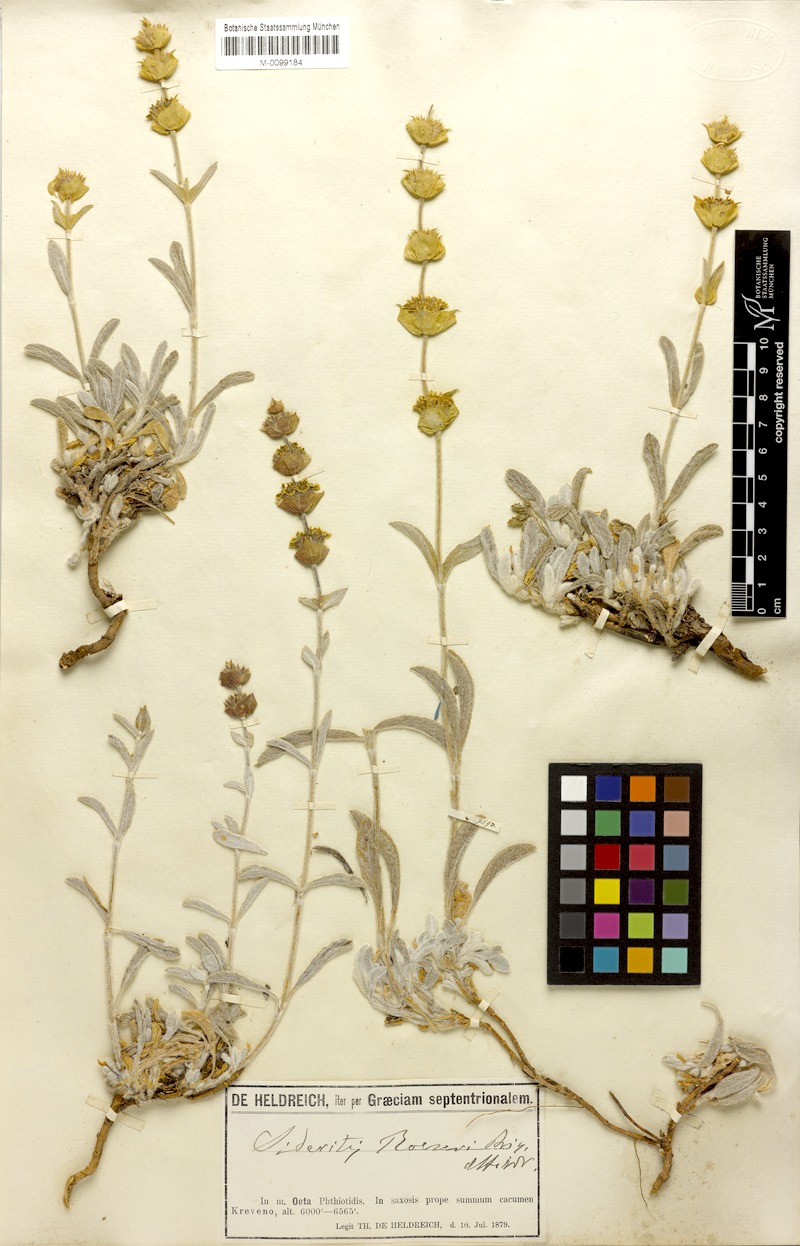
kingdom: Plantae
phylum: Tracheophyta
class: Magnoliopsida
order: Lamiales
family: Lamiaceae
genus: Sideritis
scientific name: Sideritis raeseri
